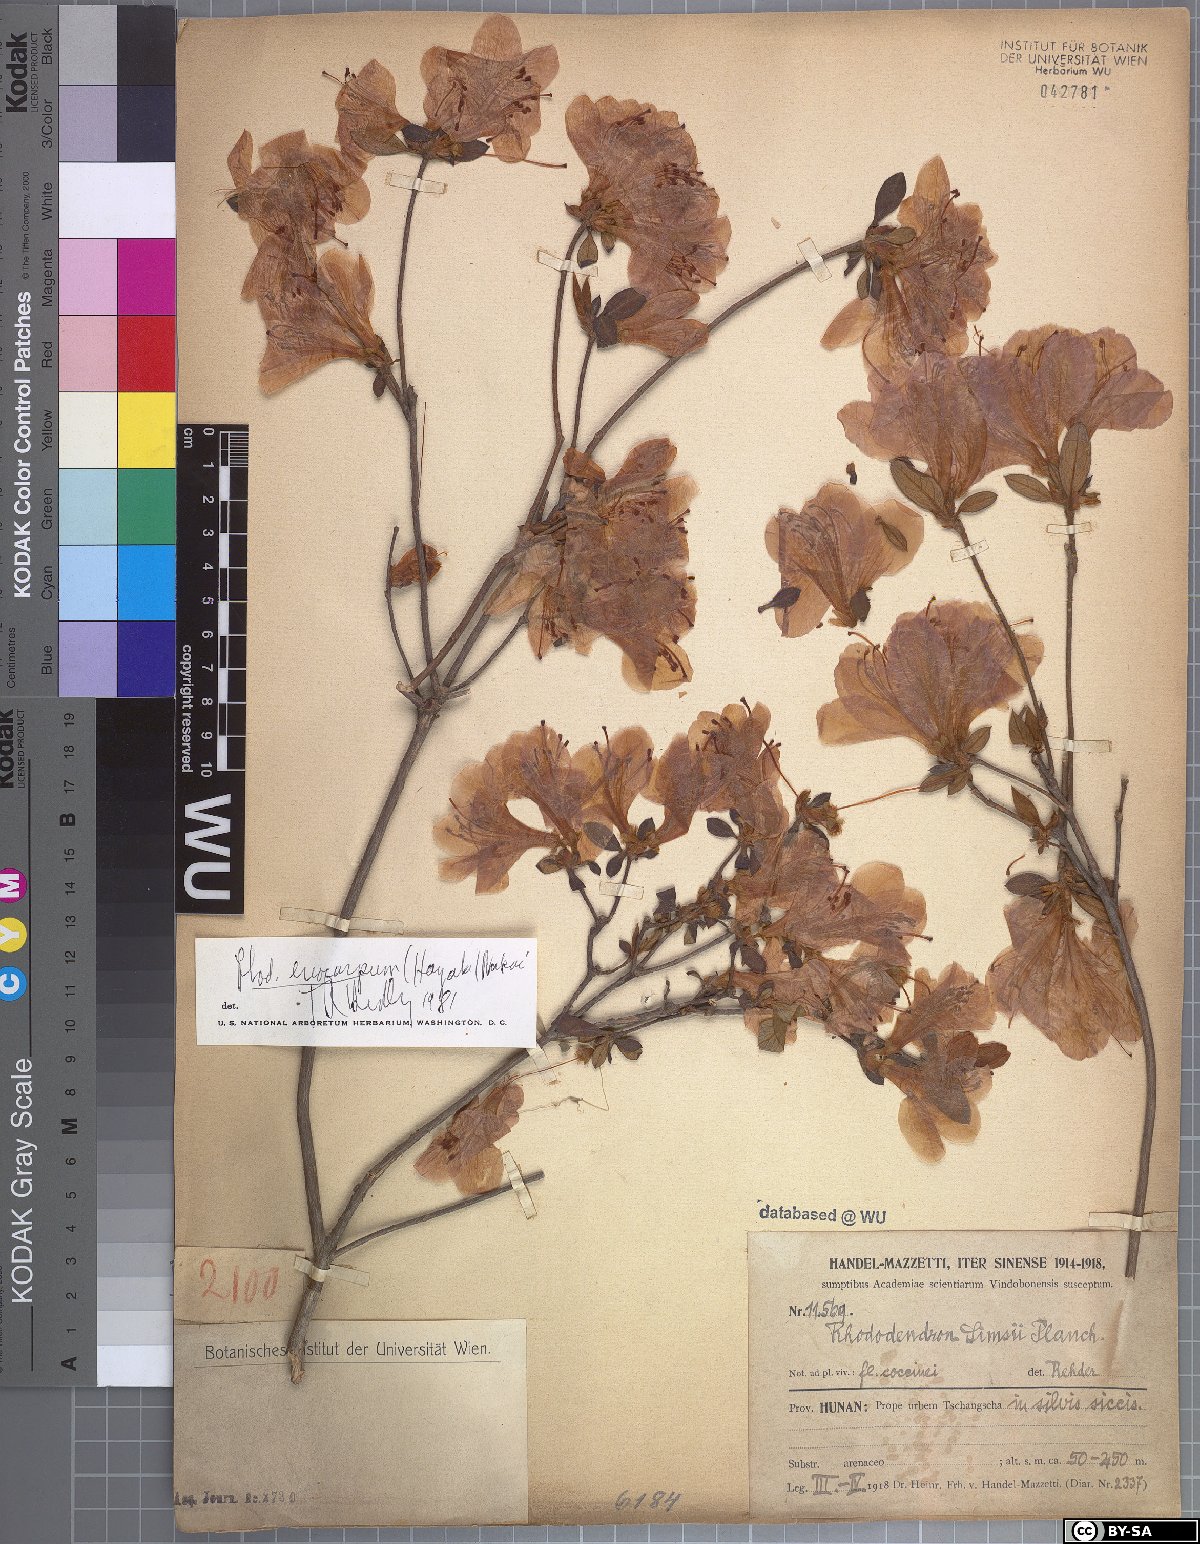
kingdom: Plantae
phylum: Tracheophyta
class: Magnoliopsida
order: Ericales
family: Ericaceae
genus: Rhododendron
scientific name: Rhododendron eriocarpum
